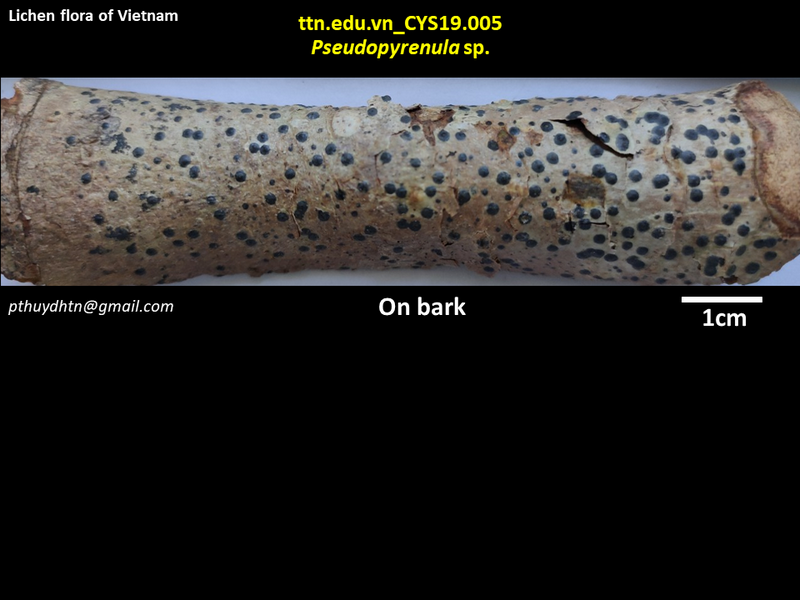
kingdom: Fungi
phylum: Ascomycota
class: Dothideomycetes
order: Trypetheliales
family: Trypetheliaceae
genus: Pseudopyrenula
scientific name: Pseudopyrenula
